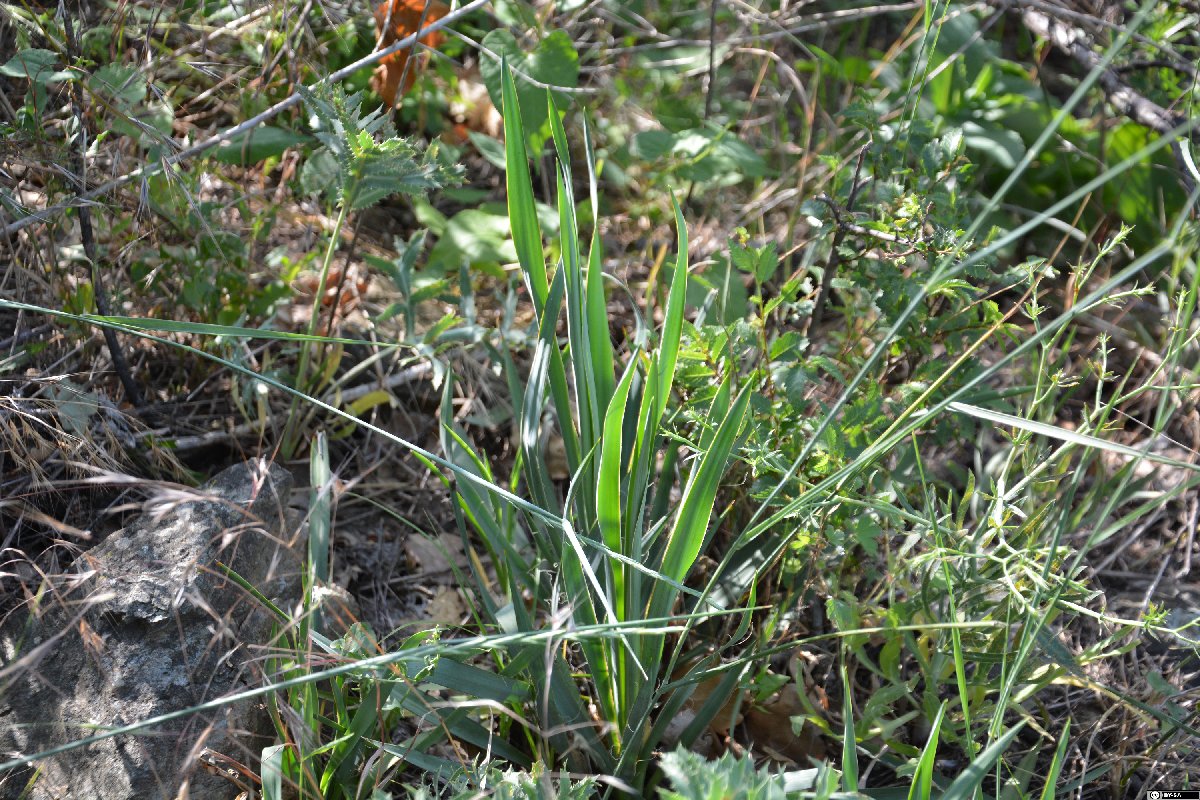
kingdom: Plantae
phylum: Tracheophyta
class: Liliopsida
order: Asparagales
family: Asparagaceae
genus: Yucca
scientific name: Yucca flaccida
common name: Adam's-needle
